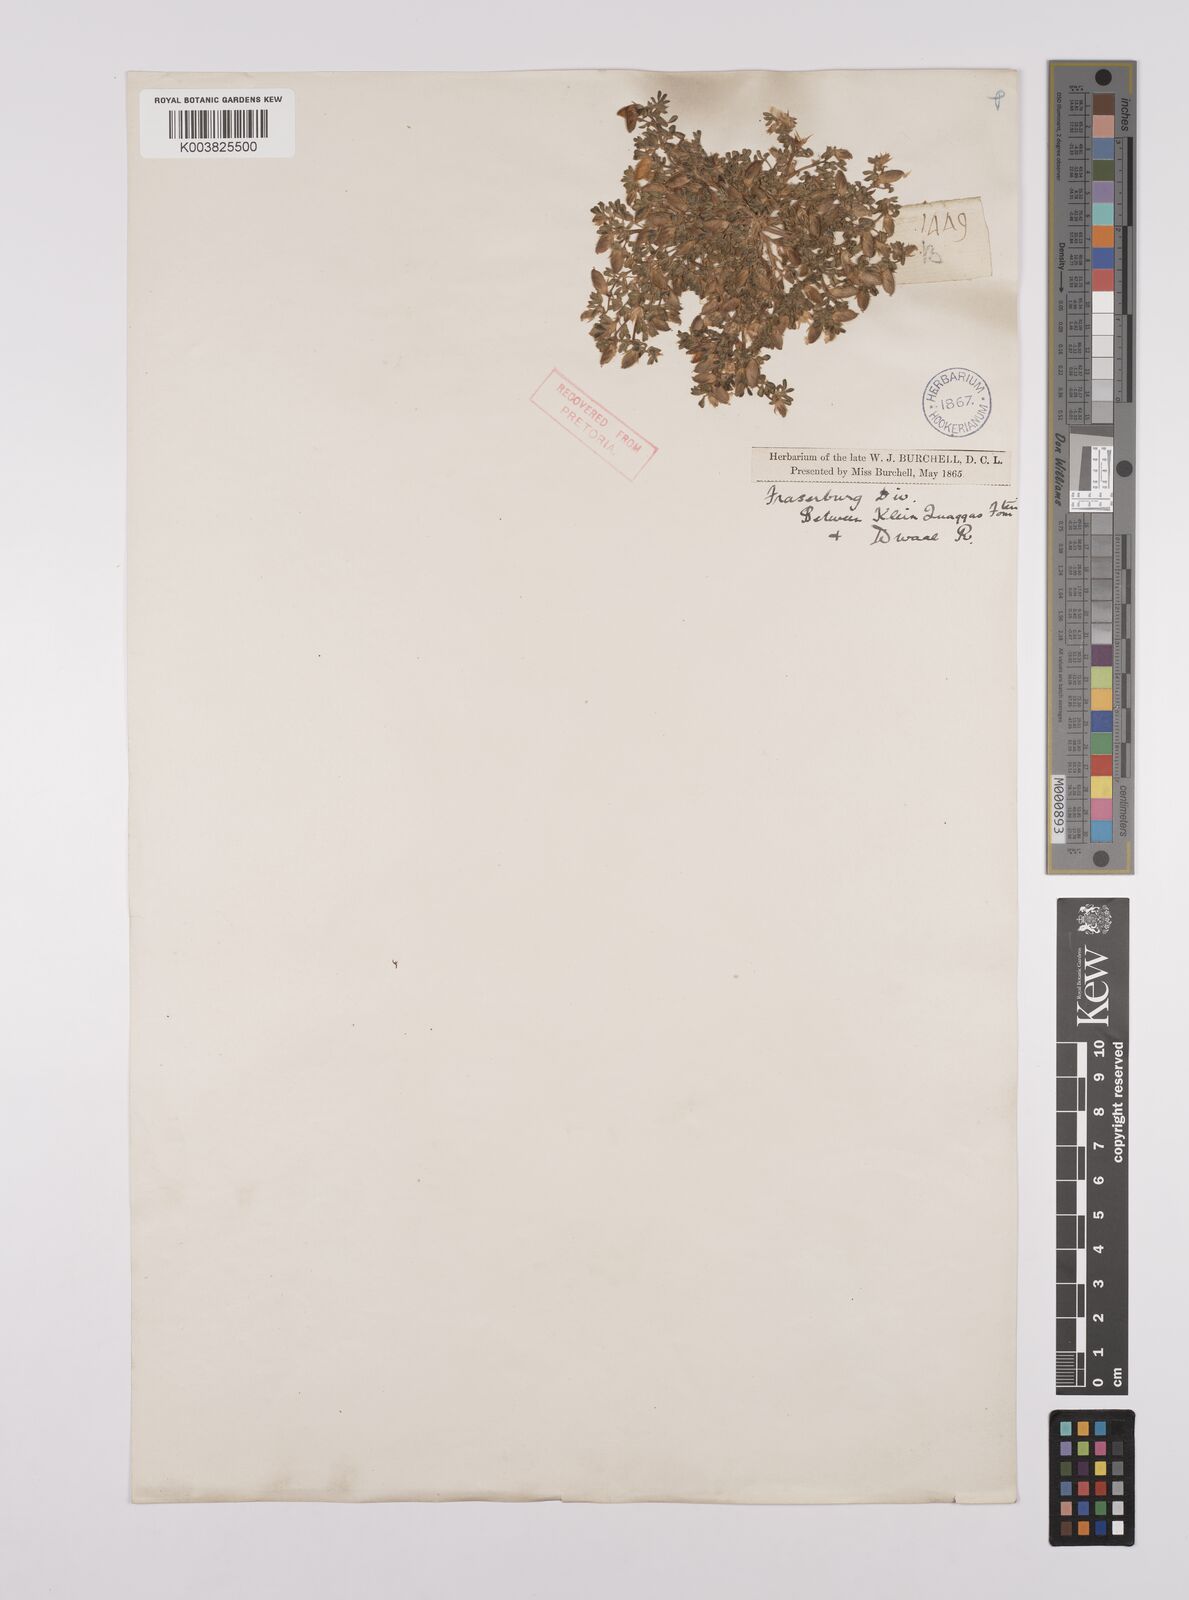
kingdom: Plantae
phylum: Tracheophyta
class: Magnoliopsida
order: Fabales
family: Fabaceae
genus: Lotononis
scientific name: Lotononis leptoloba
